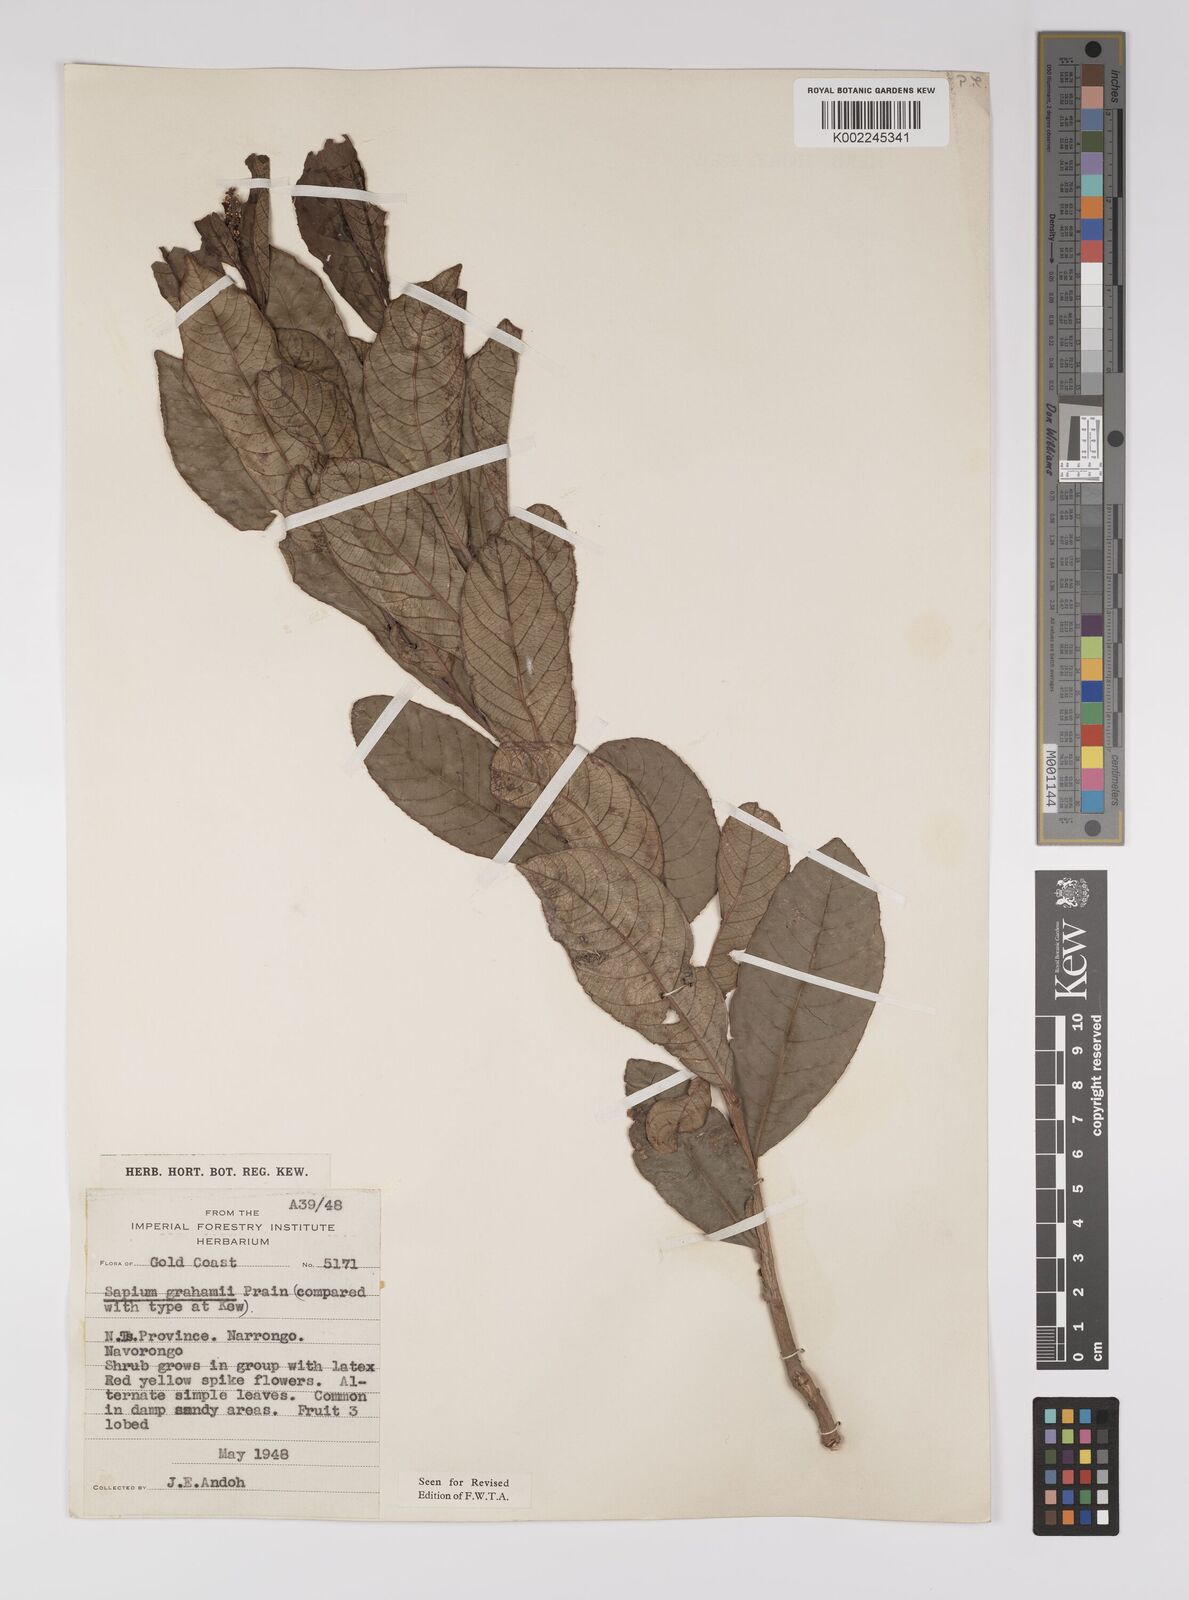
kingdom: Plantae
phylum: Tracheophyta
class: Magnoliopsida
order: Malpighiales
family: Euphorbiaceae
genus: Excoecaria
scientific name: Excoecaria grahamii
